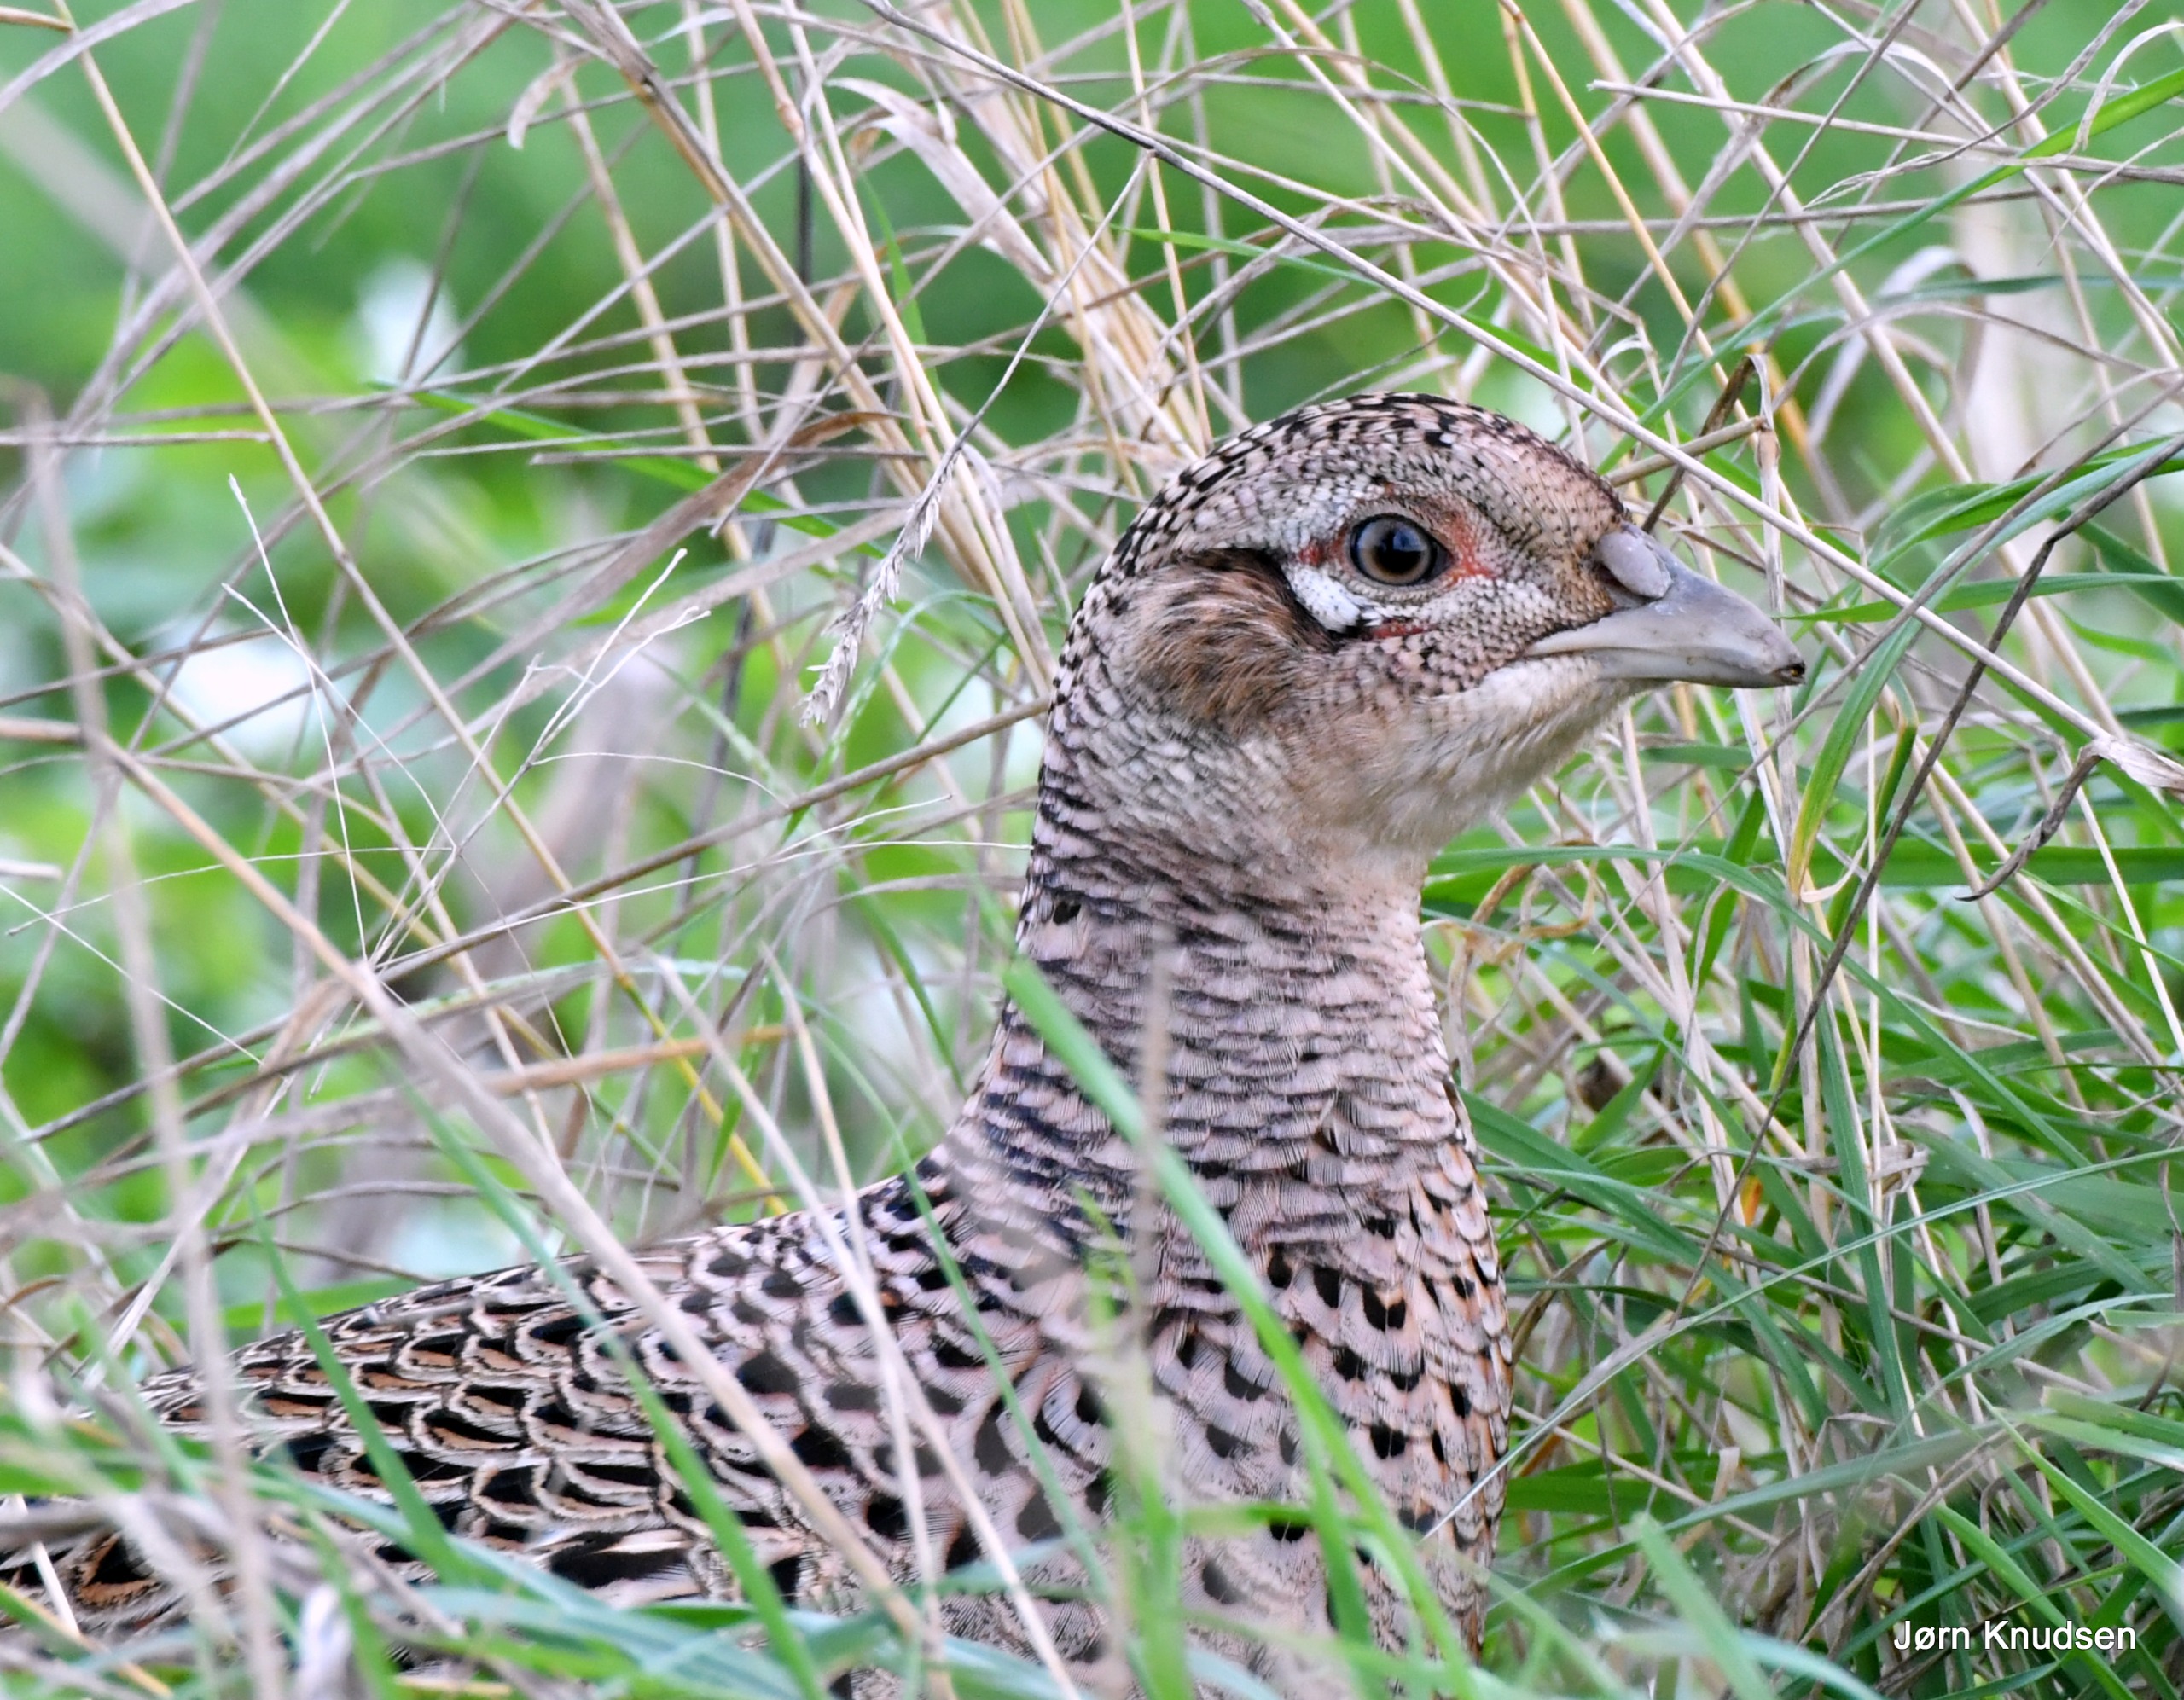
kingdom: Animalia
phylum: Chordata
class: Aves
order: Galliformes
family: Phasianidae
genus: Phasianus
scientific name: Phasianus colchicus
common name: Fasan
